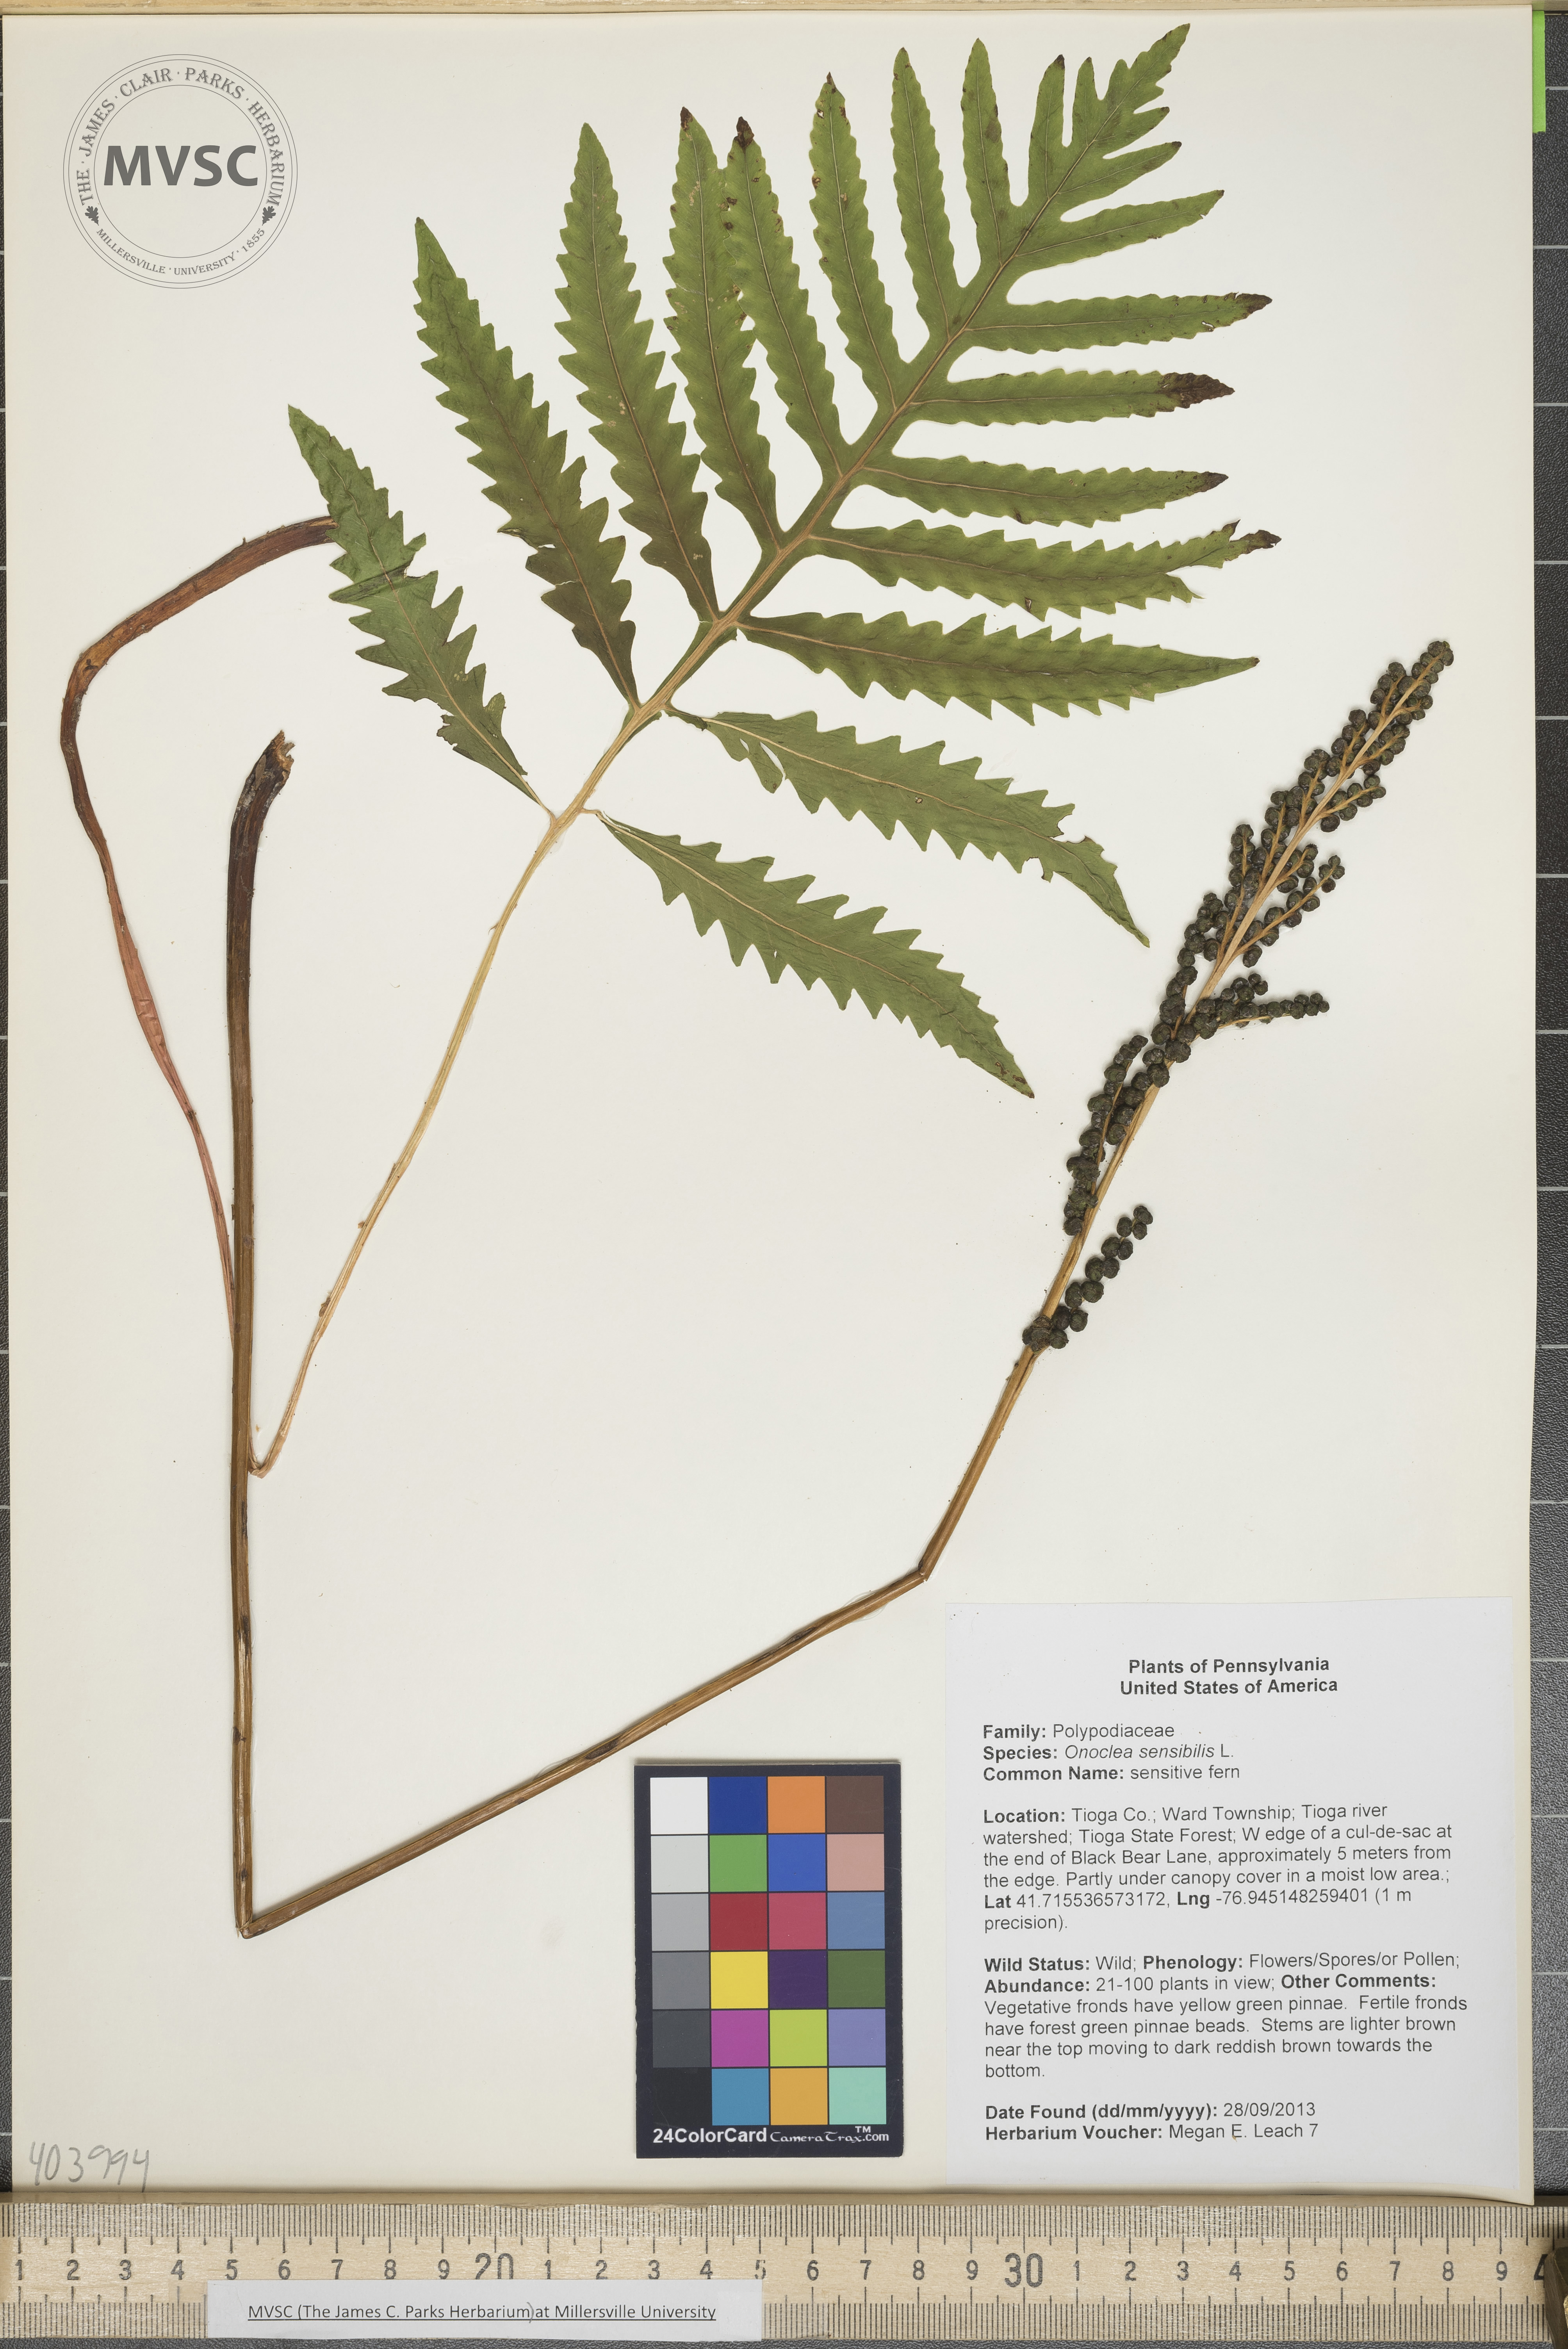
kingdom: Plantae
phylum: Tracheophyta
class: Polypodiopsida
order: Polypodiales
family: Onocleaceae
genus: Onoclea
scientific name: Onoclea sensibilis
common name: sensitive fern
